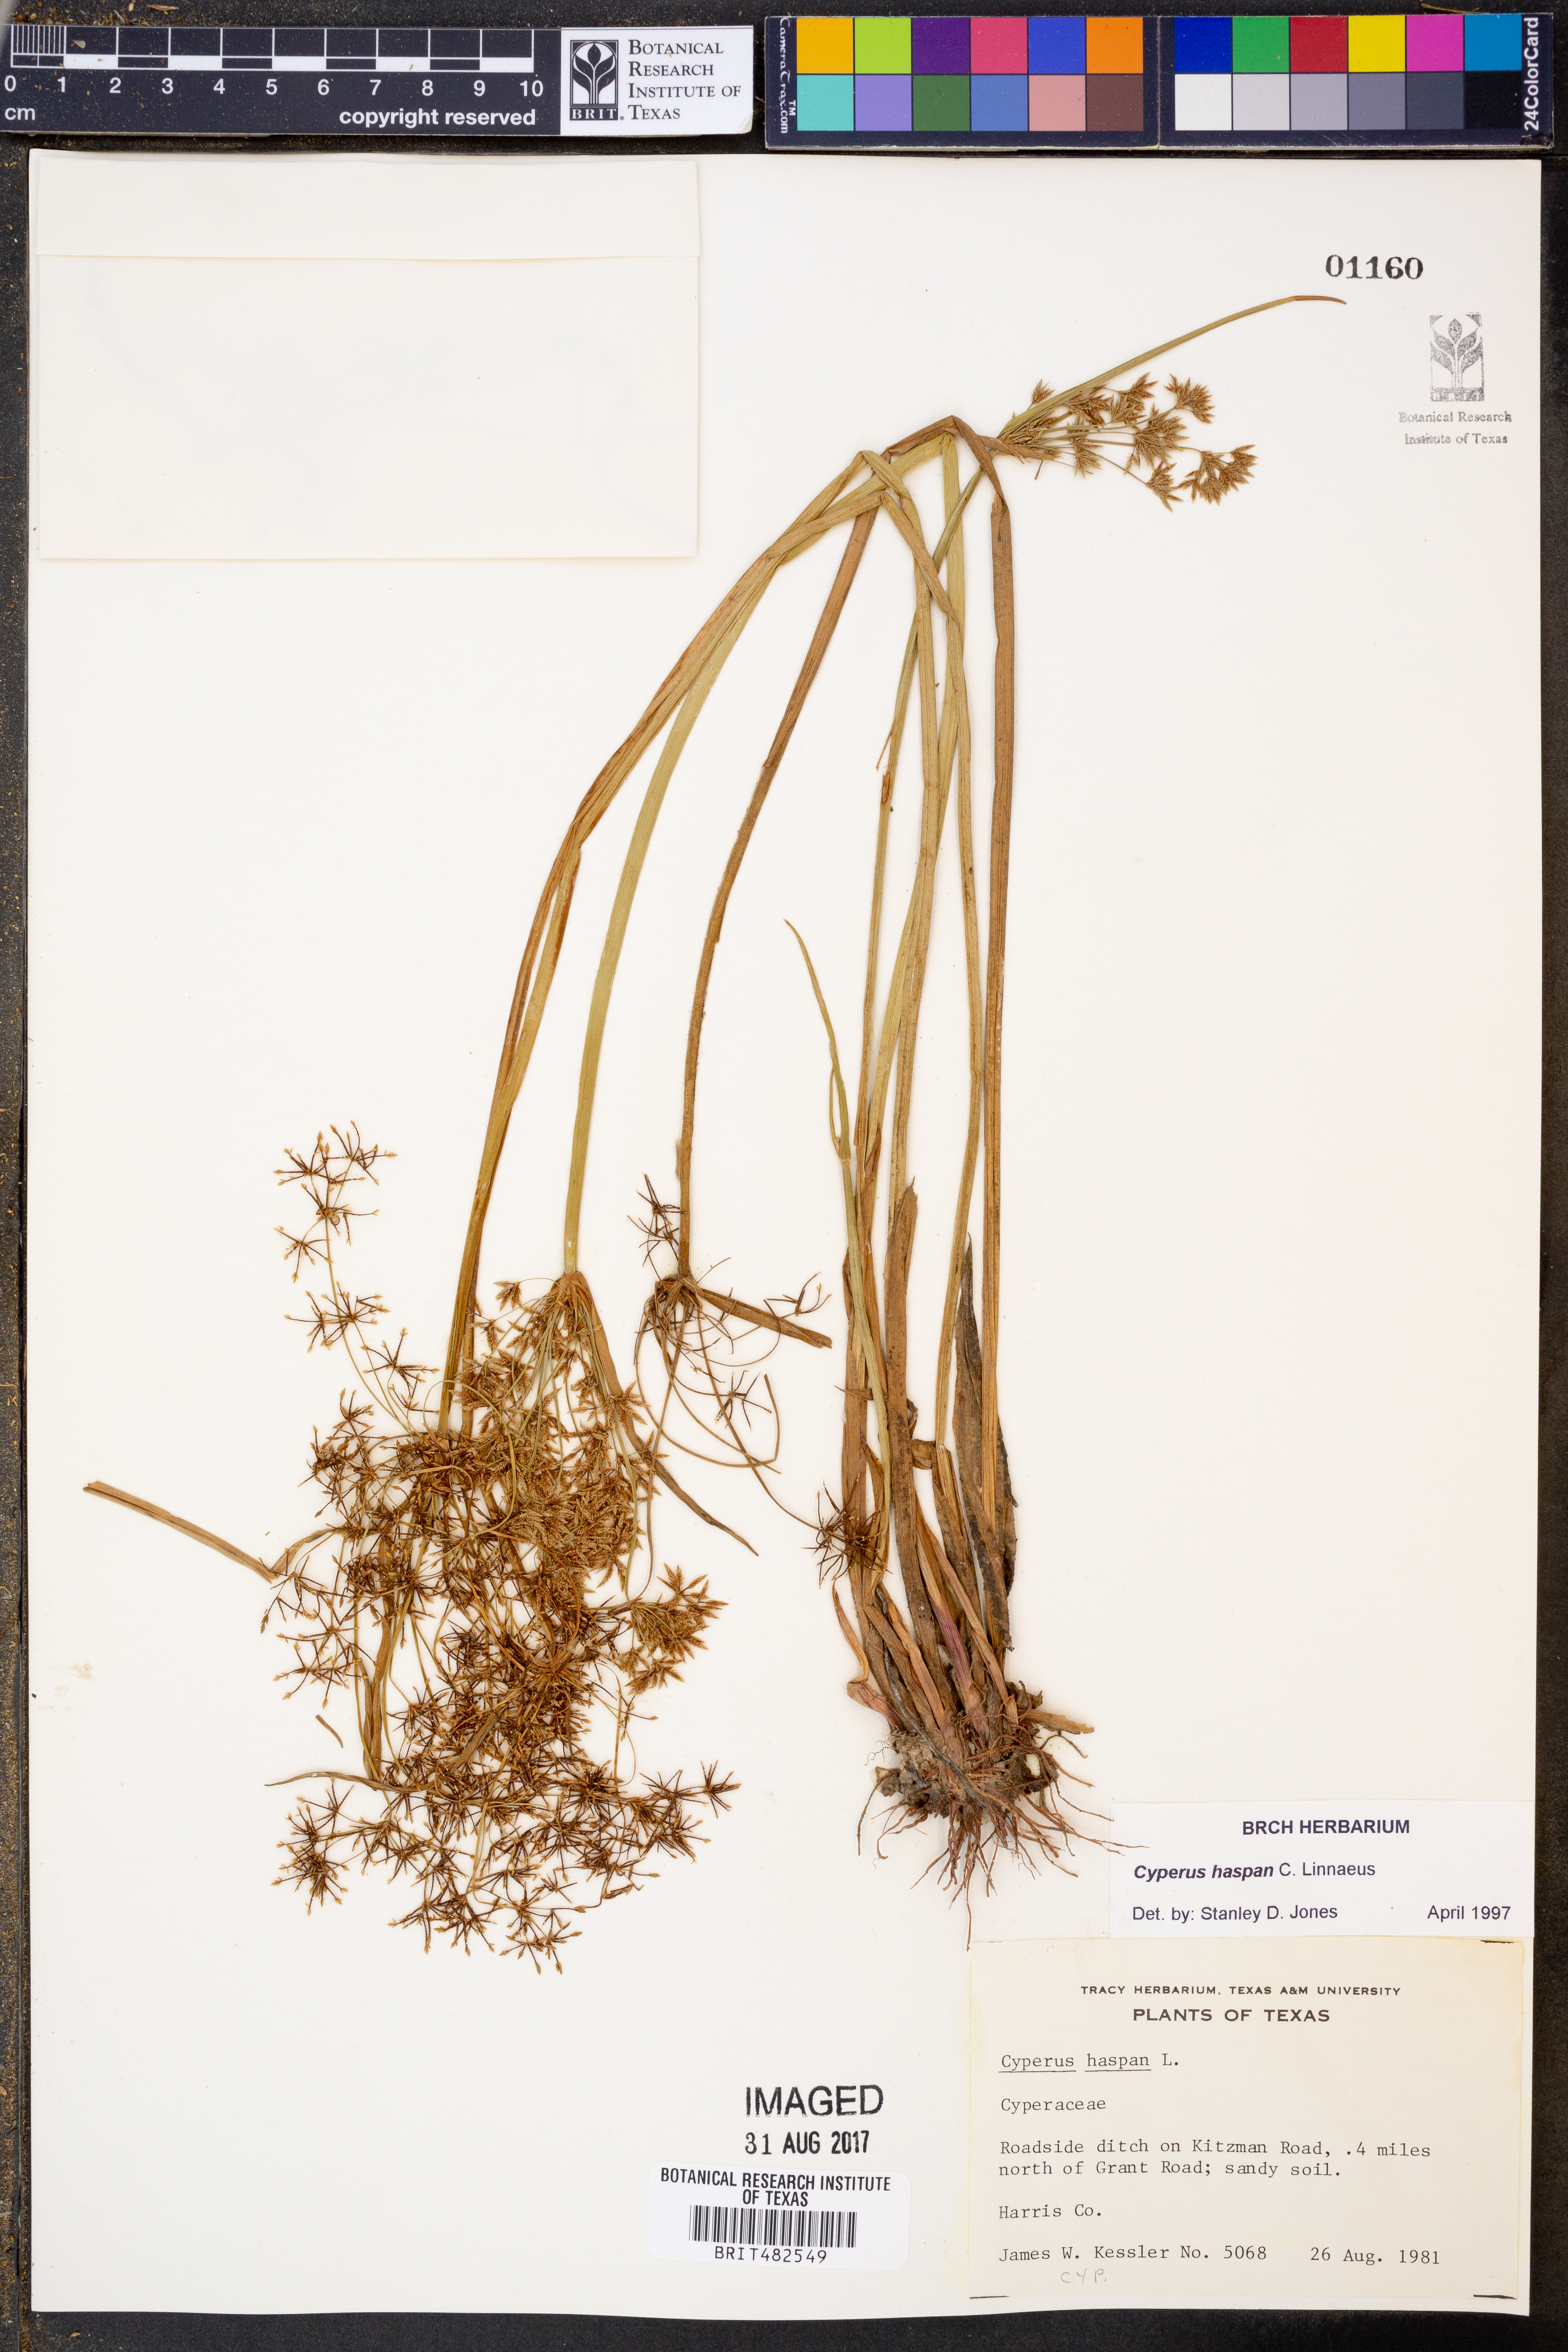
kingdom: Plantae
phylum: Tracheophyta
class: Liliopsida
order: Poales
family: Cyperaceae
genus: Cyperus
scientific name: Cyperus haspan
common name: Haspan flatsedge
